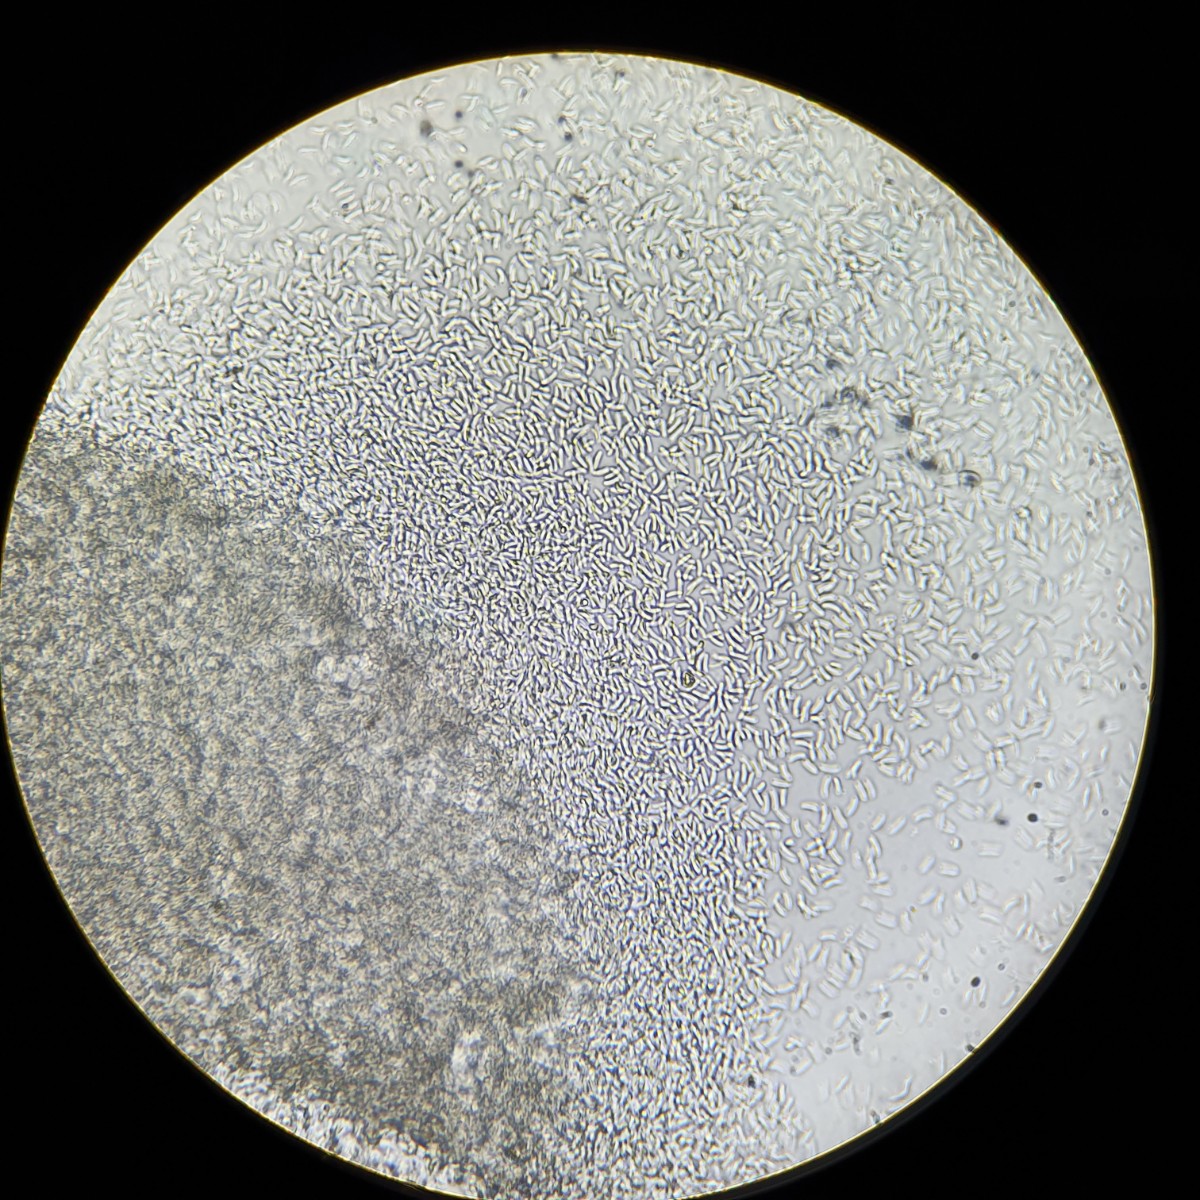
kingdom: Fungi
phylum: Ascomycota
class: Sordariomycetes
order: Diaporthales
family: Valsaceae
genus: Cytospora
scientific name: Cytospora platani
